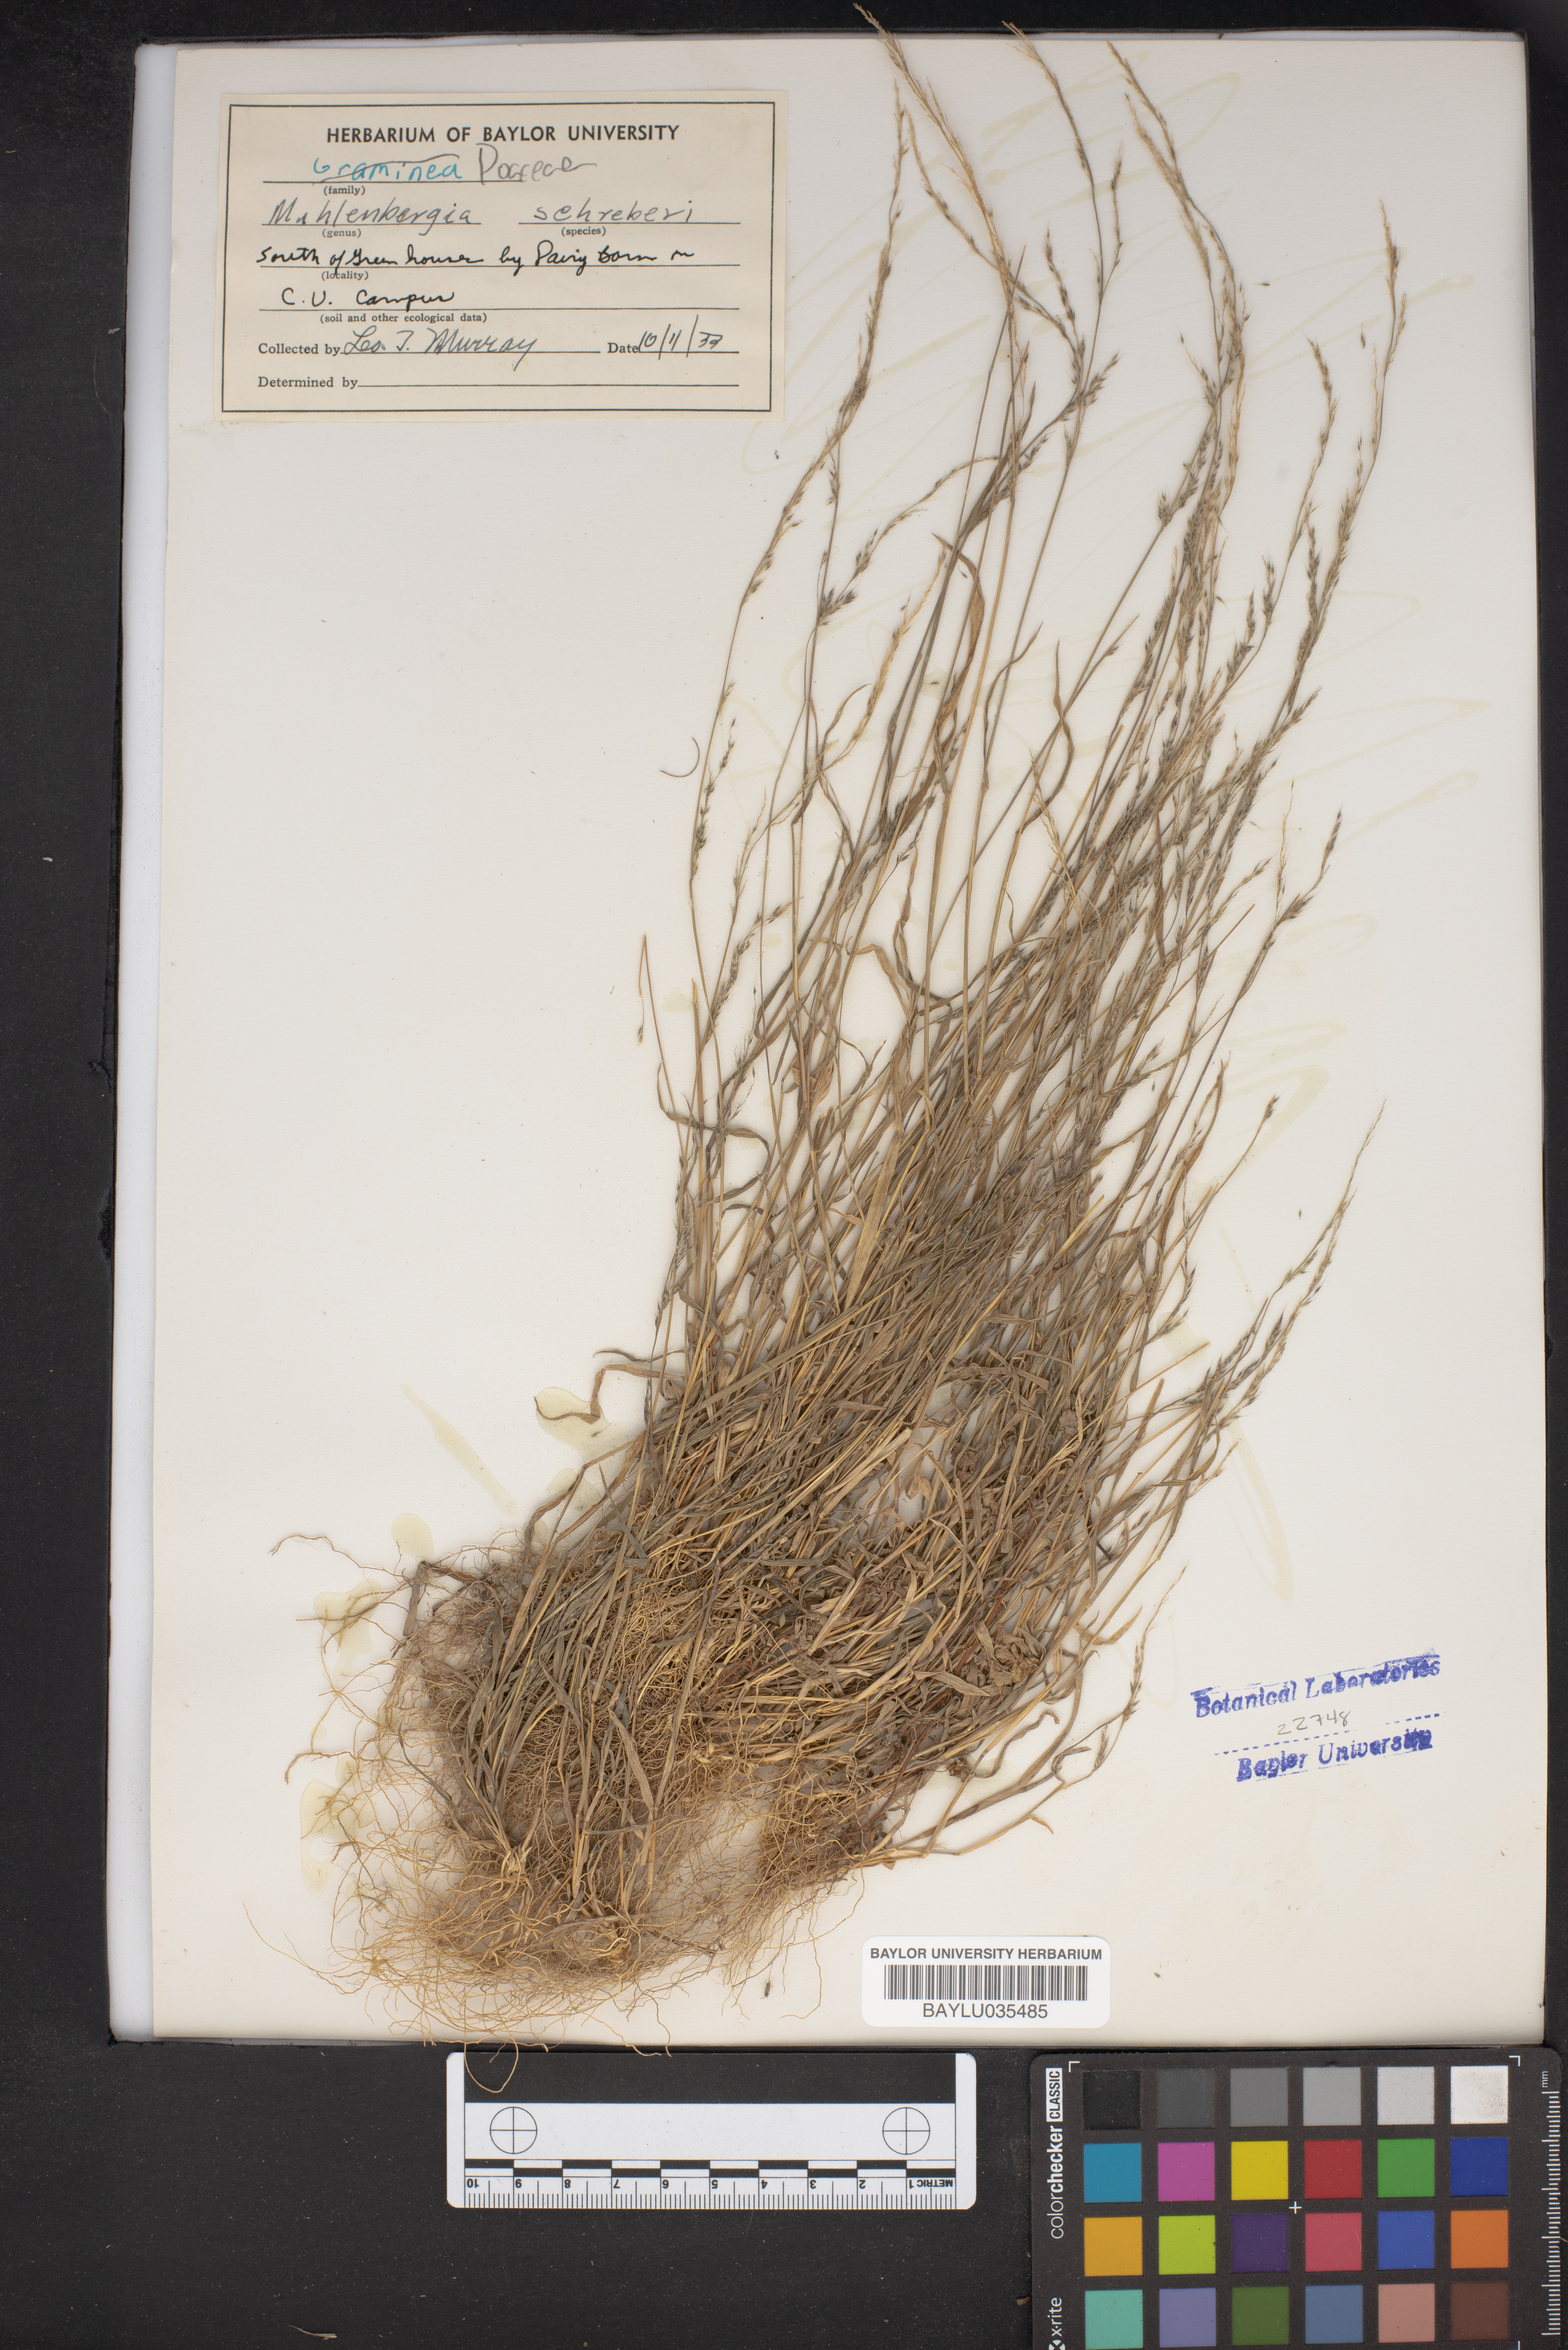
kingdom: Plantae
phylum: Tracheophyta
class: Liliopsida
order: Poales
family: Poaceae
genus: Muhlenbergia
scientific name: Muhlenbergia schreberi
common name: Nimblewill
